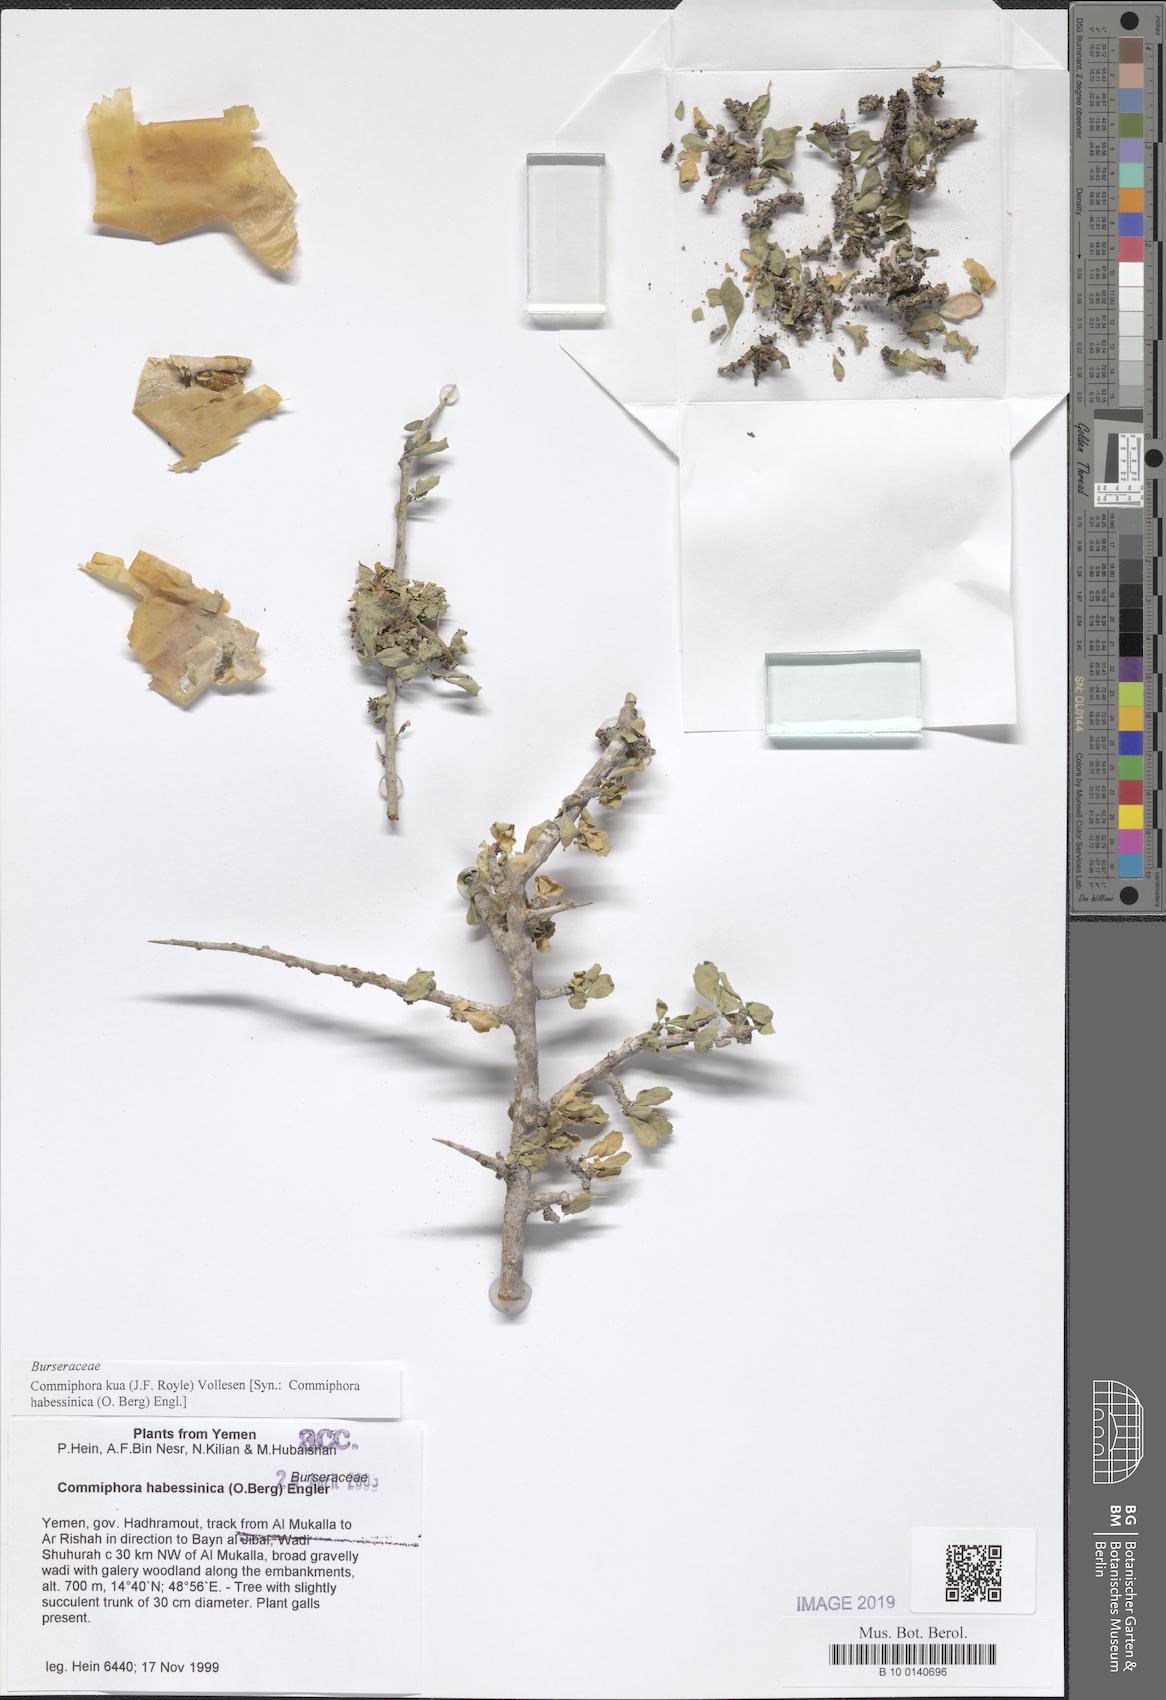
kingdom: Plantae
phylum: Tracheophyta
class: Magnoliopsida
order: Sapindales
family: Burseraceae
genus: Commiphora
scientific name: Commiphora kua
